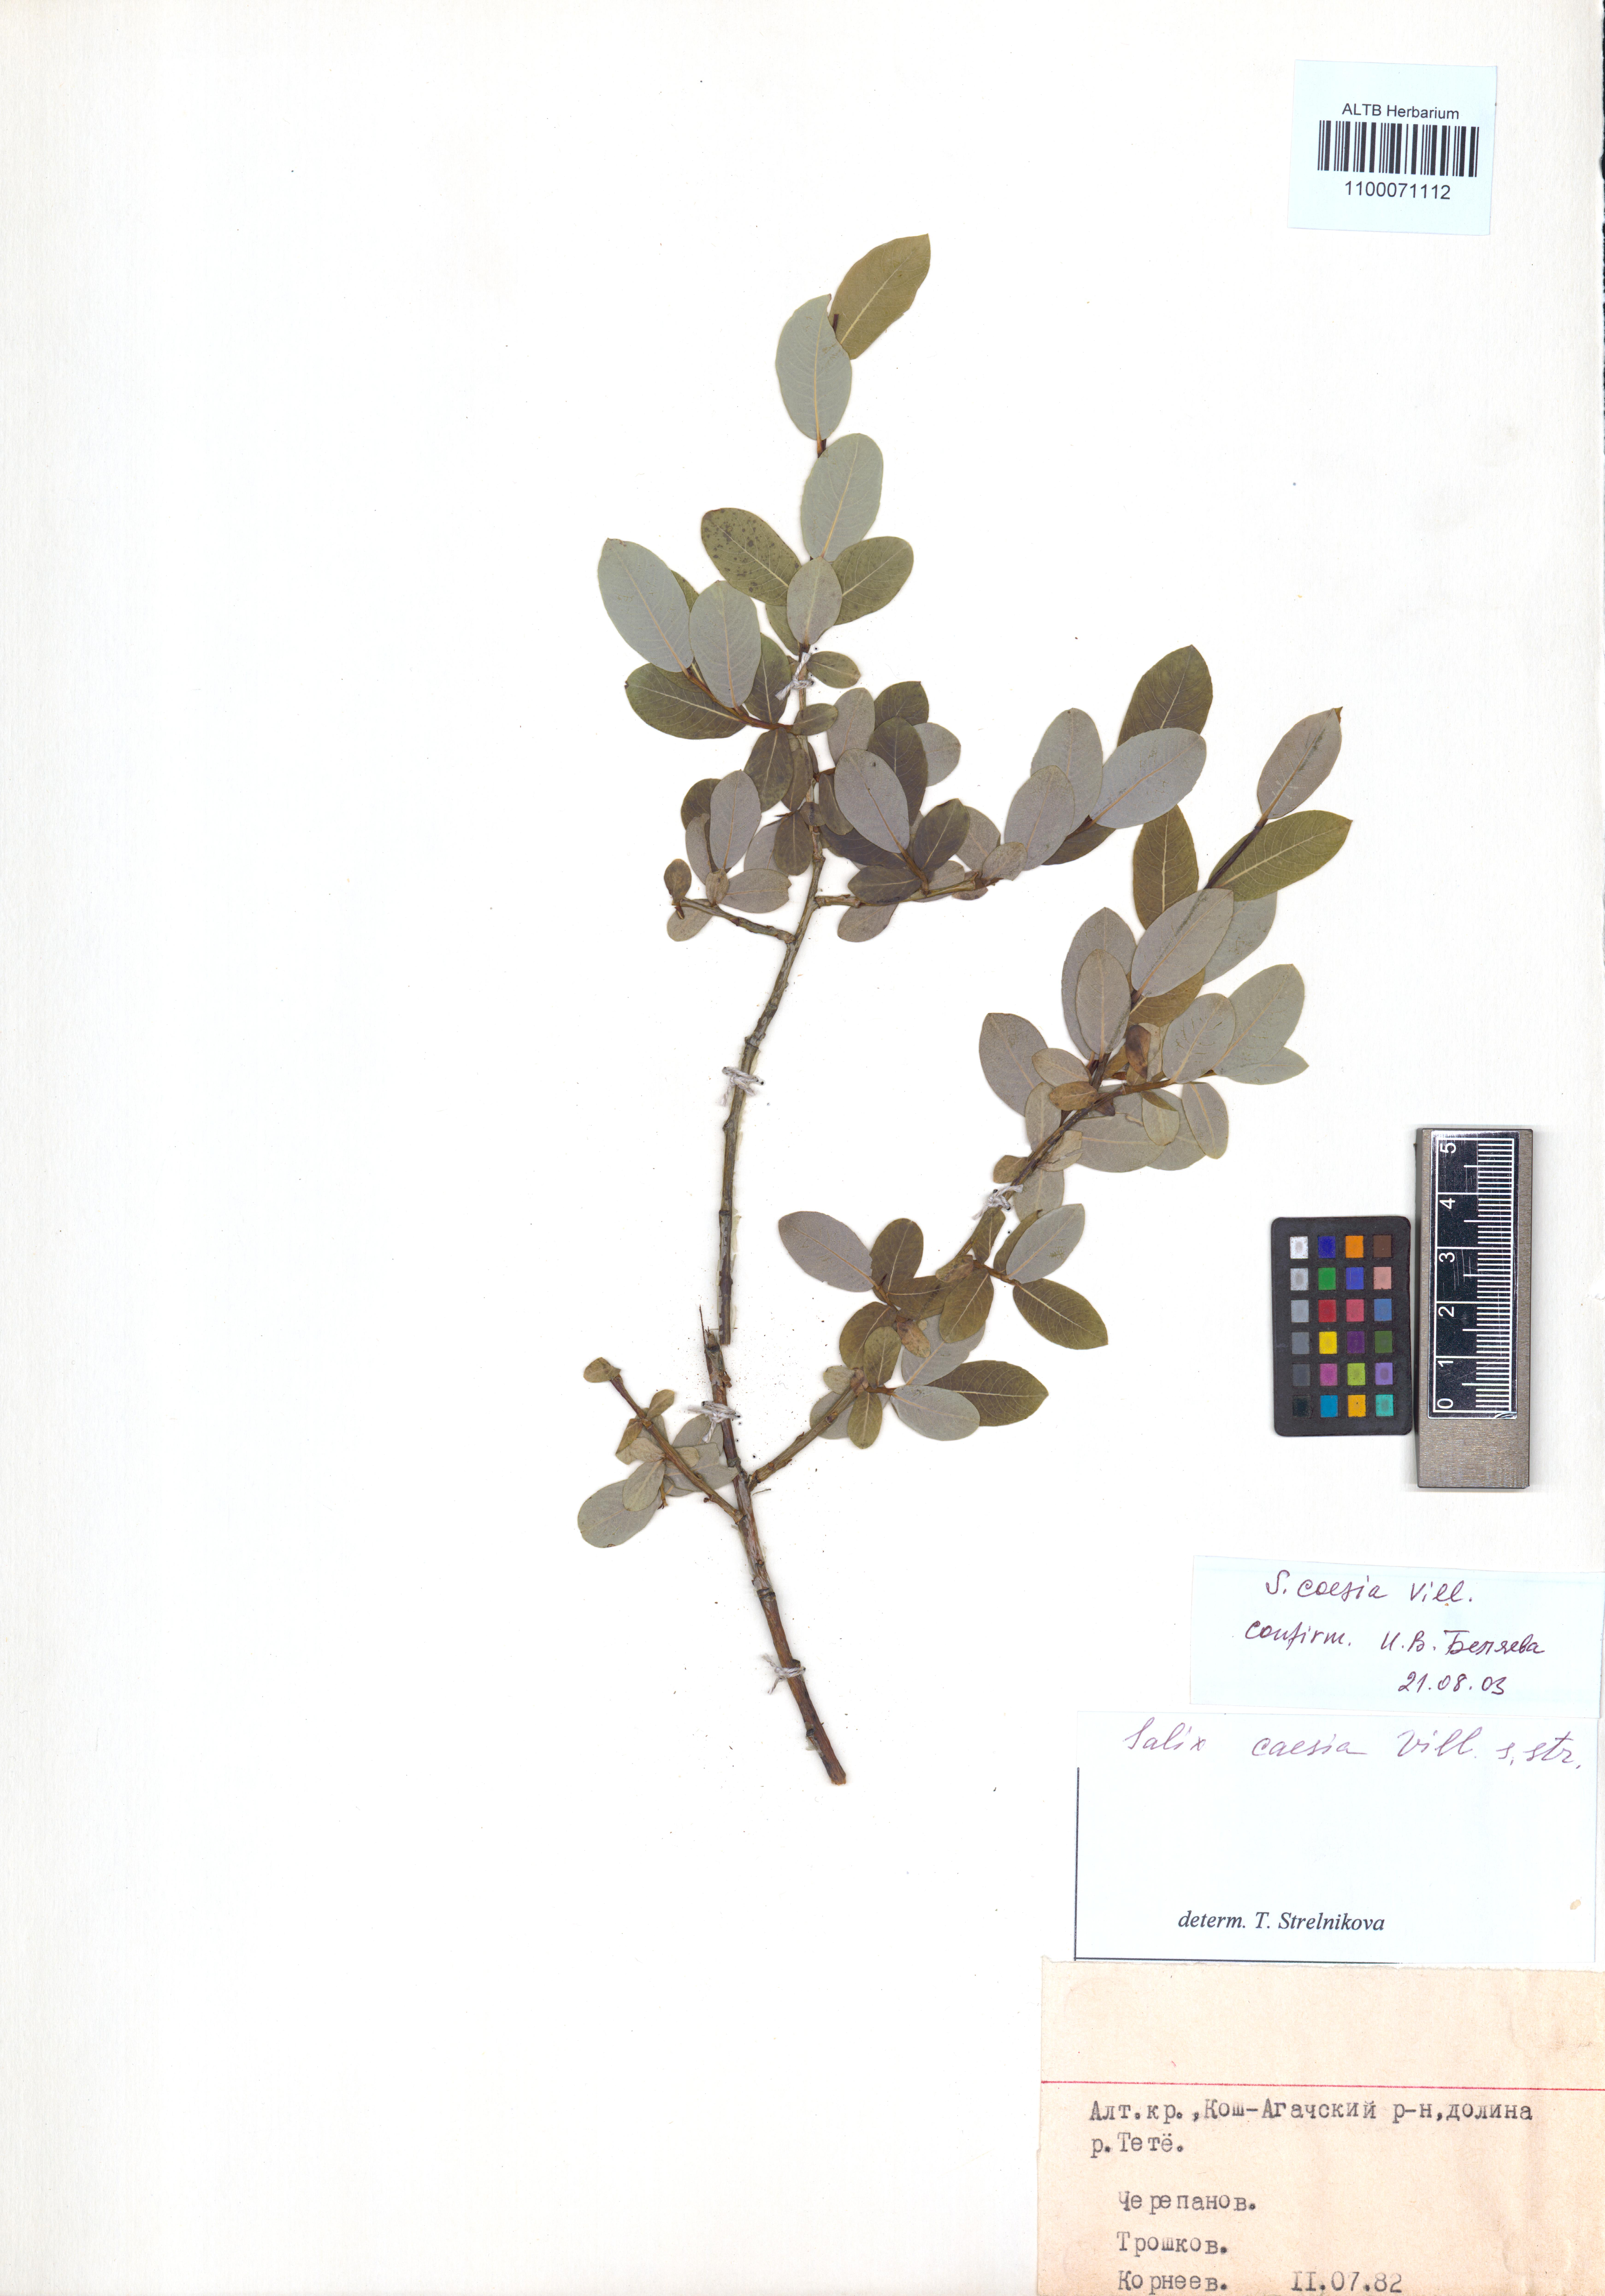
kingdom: Plantae
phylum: Tracheophyta
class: Magnoliopsida
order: Malpighiales
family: Salicaceae
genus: Salix
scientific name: Salix caesia
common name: Blue willow
